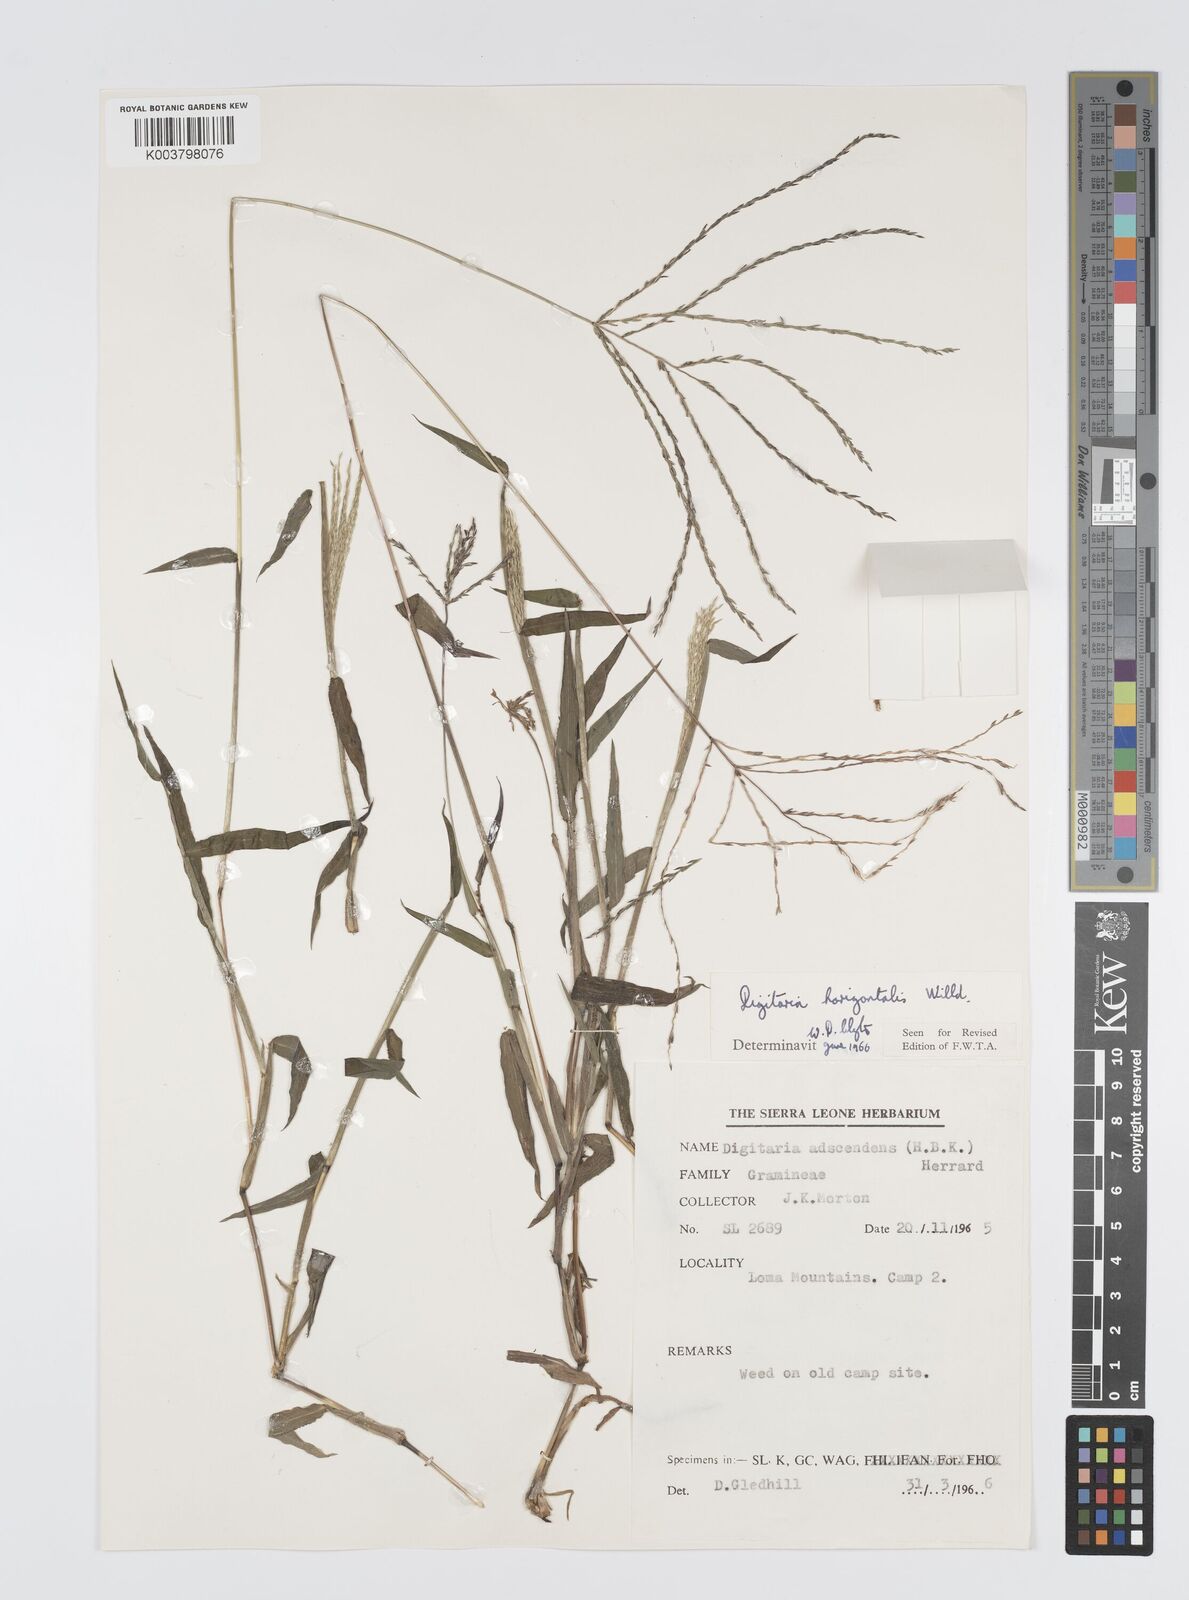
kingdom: Plantae
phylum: Tracheophyta
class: Liliopsida
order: Poales
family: Poaceae
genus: Digitaria
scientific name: Digitaria horizontalis
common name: Jamaican crabgrass
